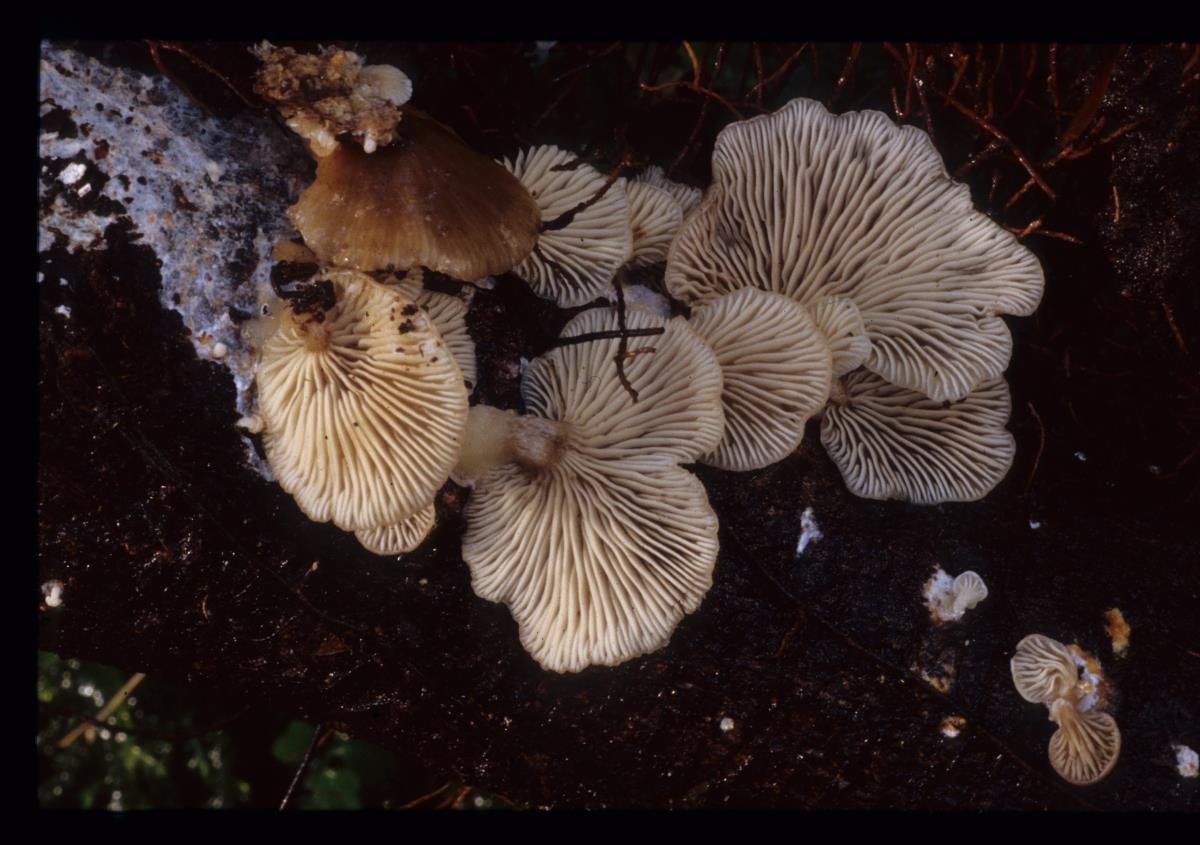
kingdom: Fungi
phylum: Basidiomycota
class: Agaricomycetes
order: Agaricales
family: Tricholomataceae
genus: Rhizocybe
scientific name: Rhizocybe
